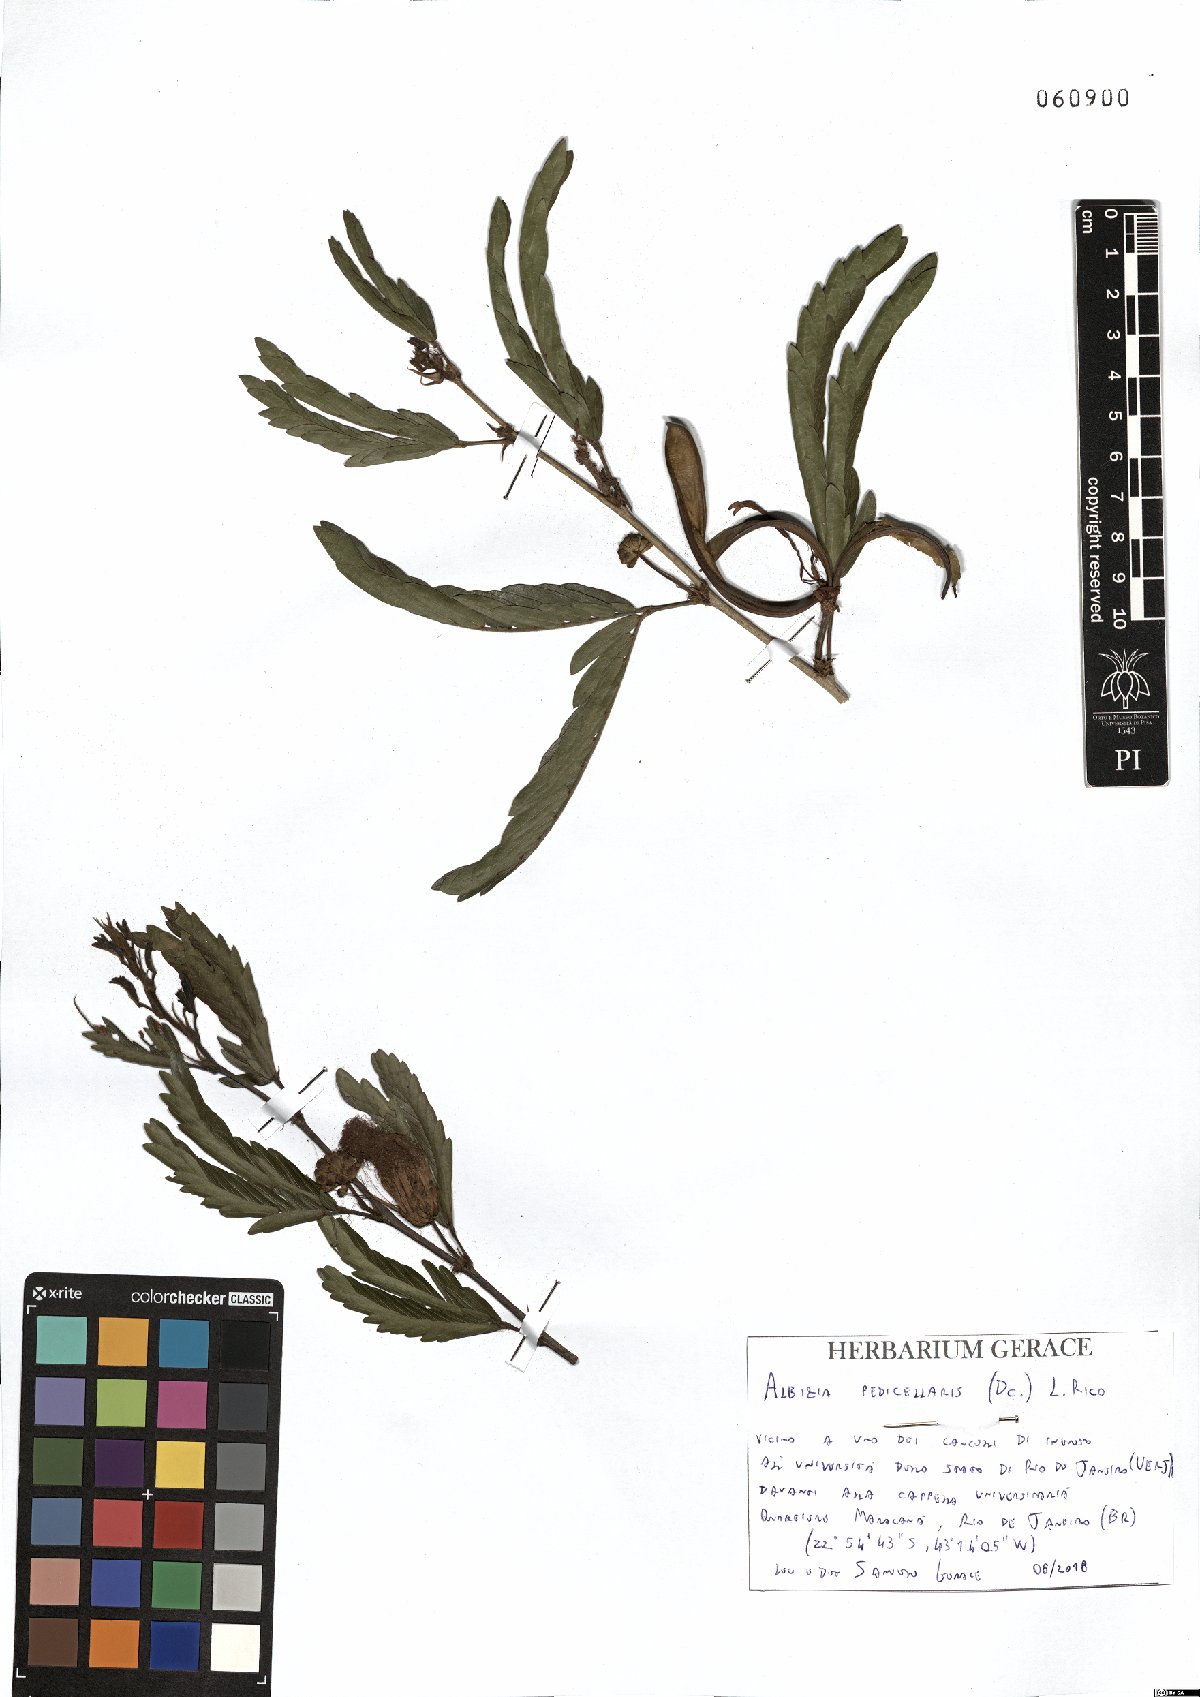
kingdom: Plantae
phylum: Tracheophyta
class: Magnoliopsida
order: Fabales
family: Fabaceae
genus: Balizia
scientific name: Balizia pedicellaris
